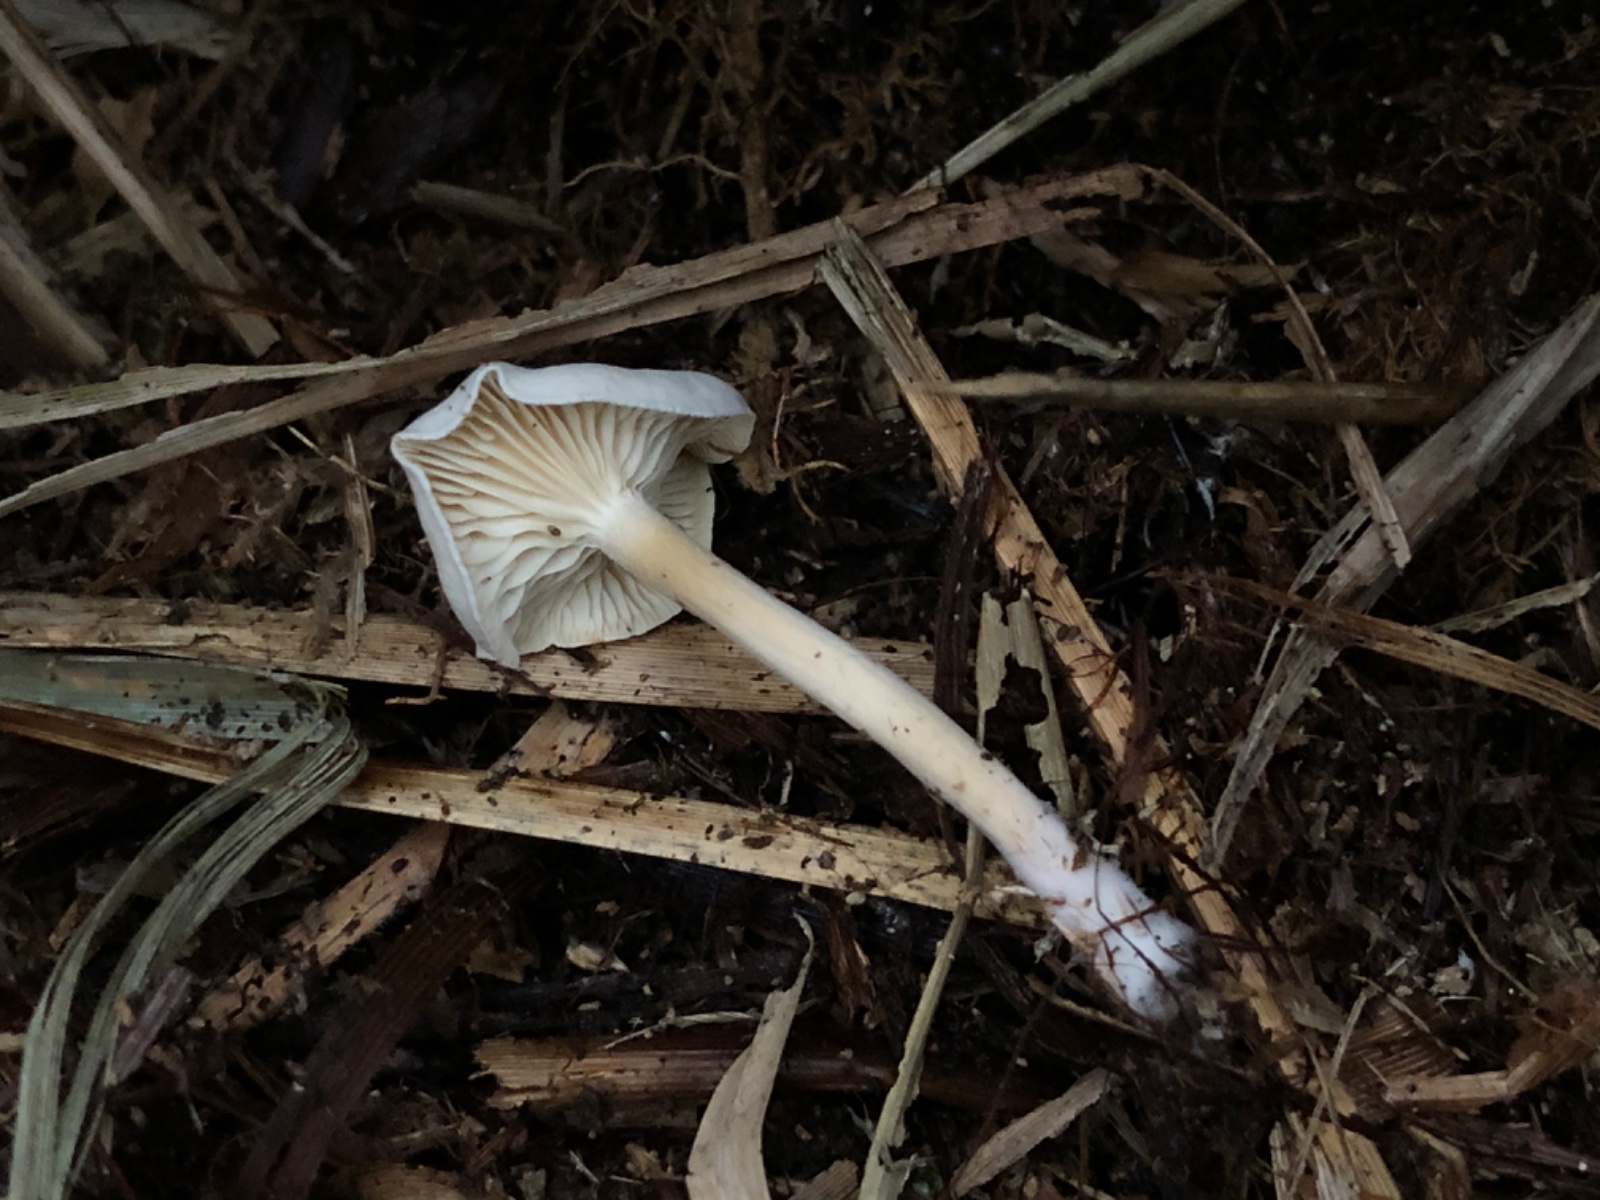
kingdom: Fungi
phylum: Basidiomycota
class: Agaricomycetes
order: Agaricales
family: Tricholomataceae
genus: Clitocybe
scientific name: Clitocybe
